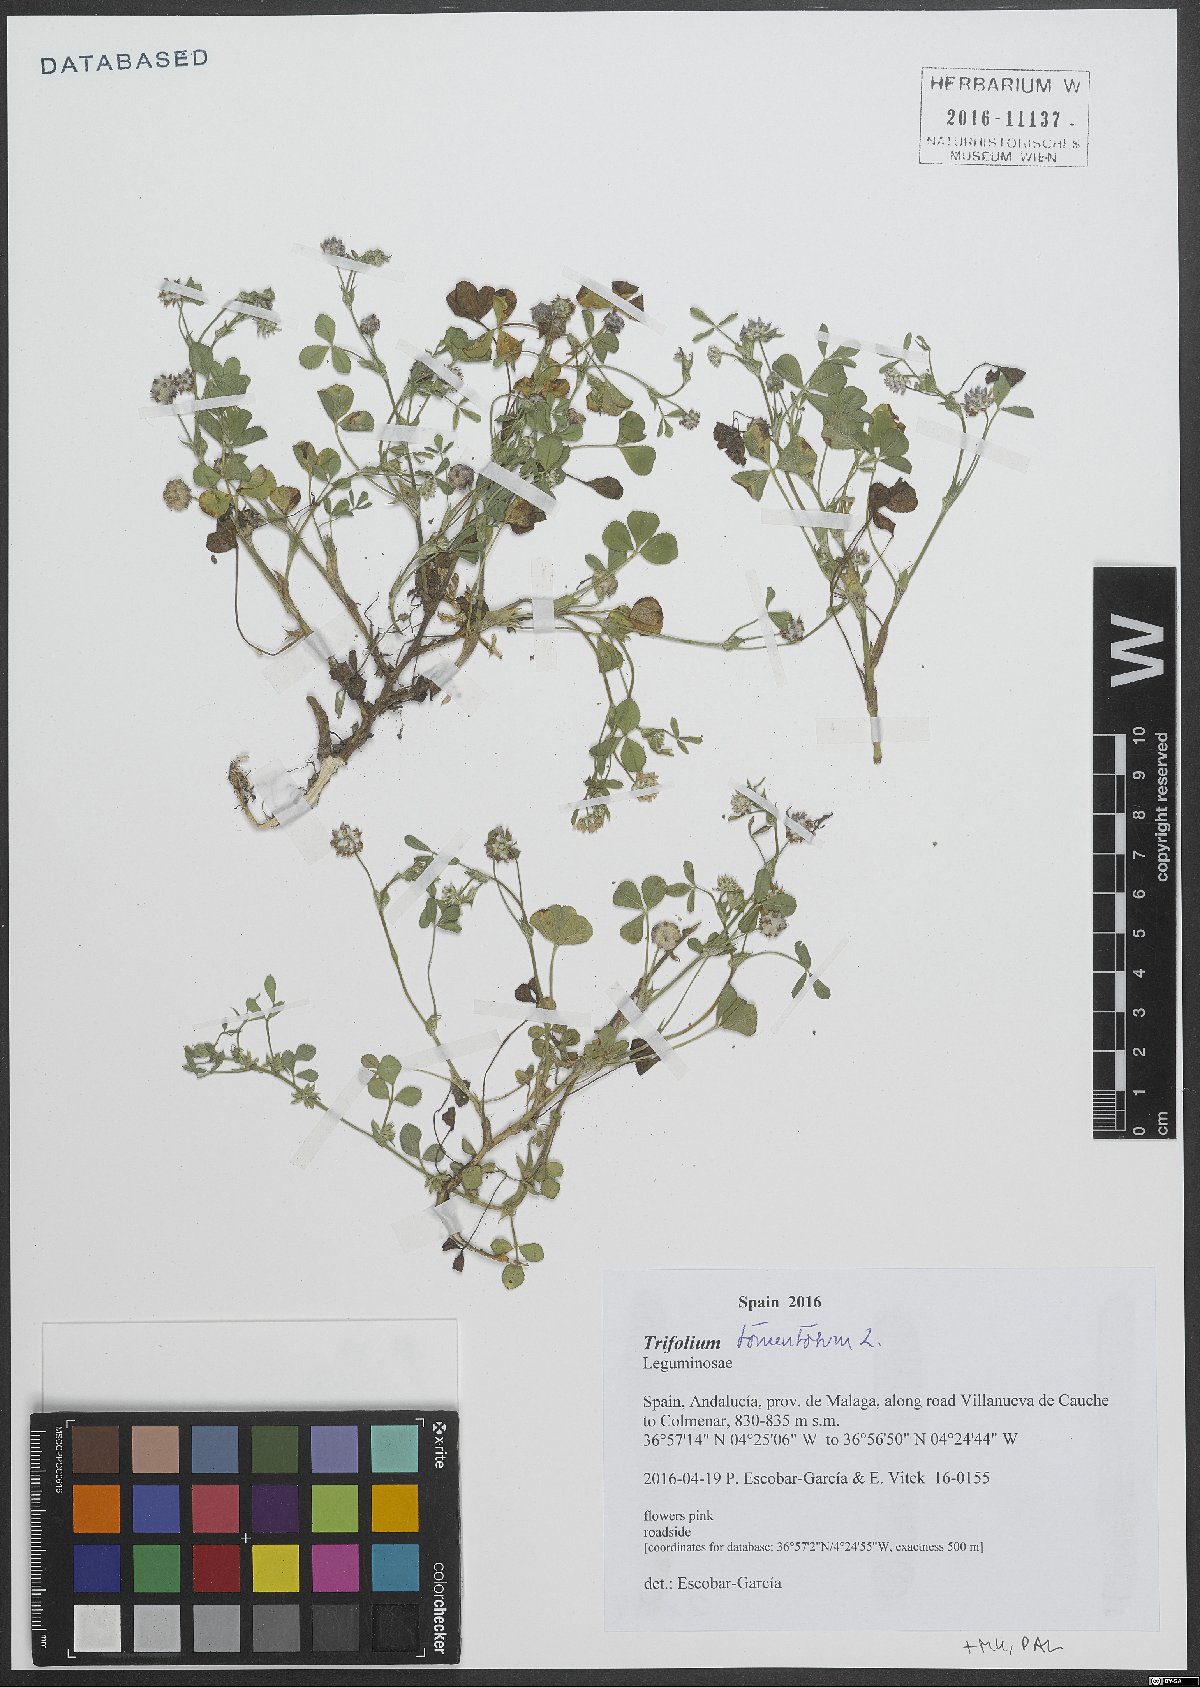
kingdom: Plantae
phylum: Tracheophyta
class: Magnoliopsida
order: Fabales
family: Fabaceae
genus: Trifolium
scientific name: Trifolium tomentosum
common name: Woolly clover
